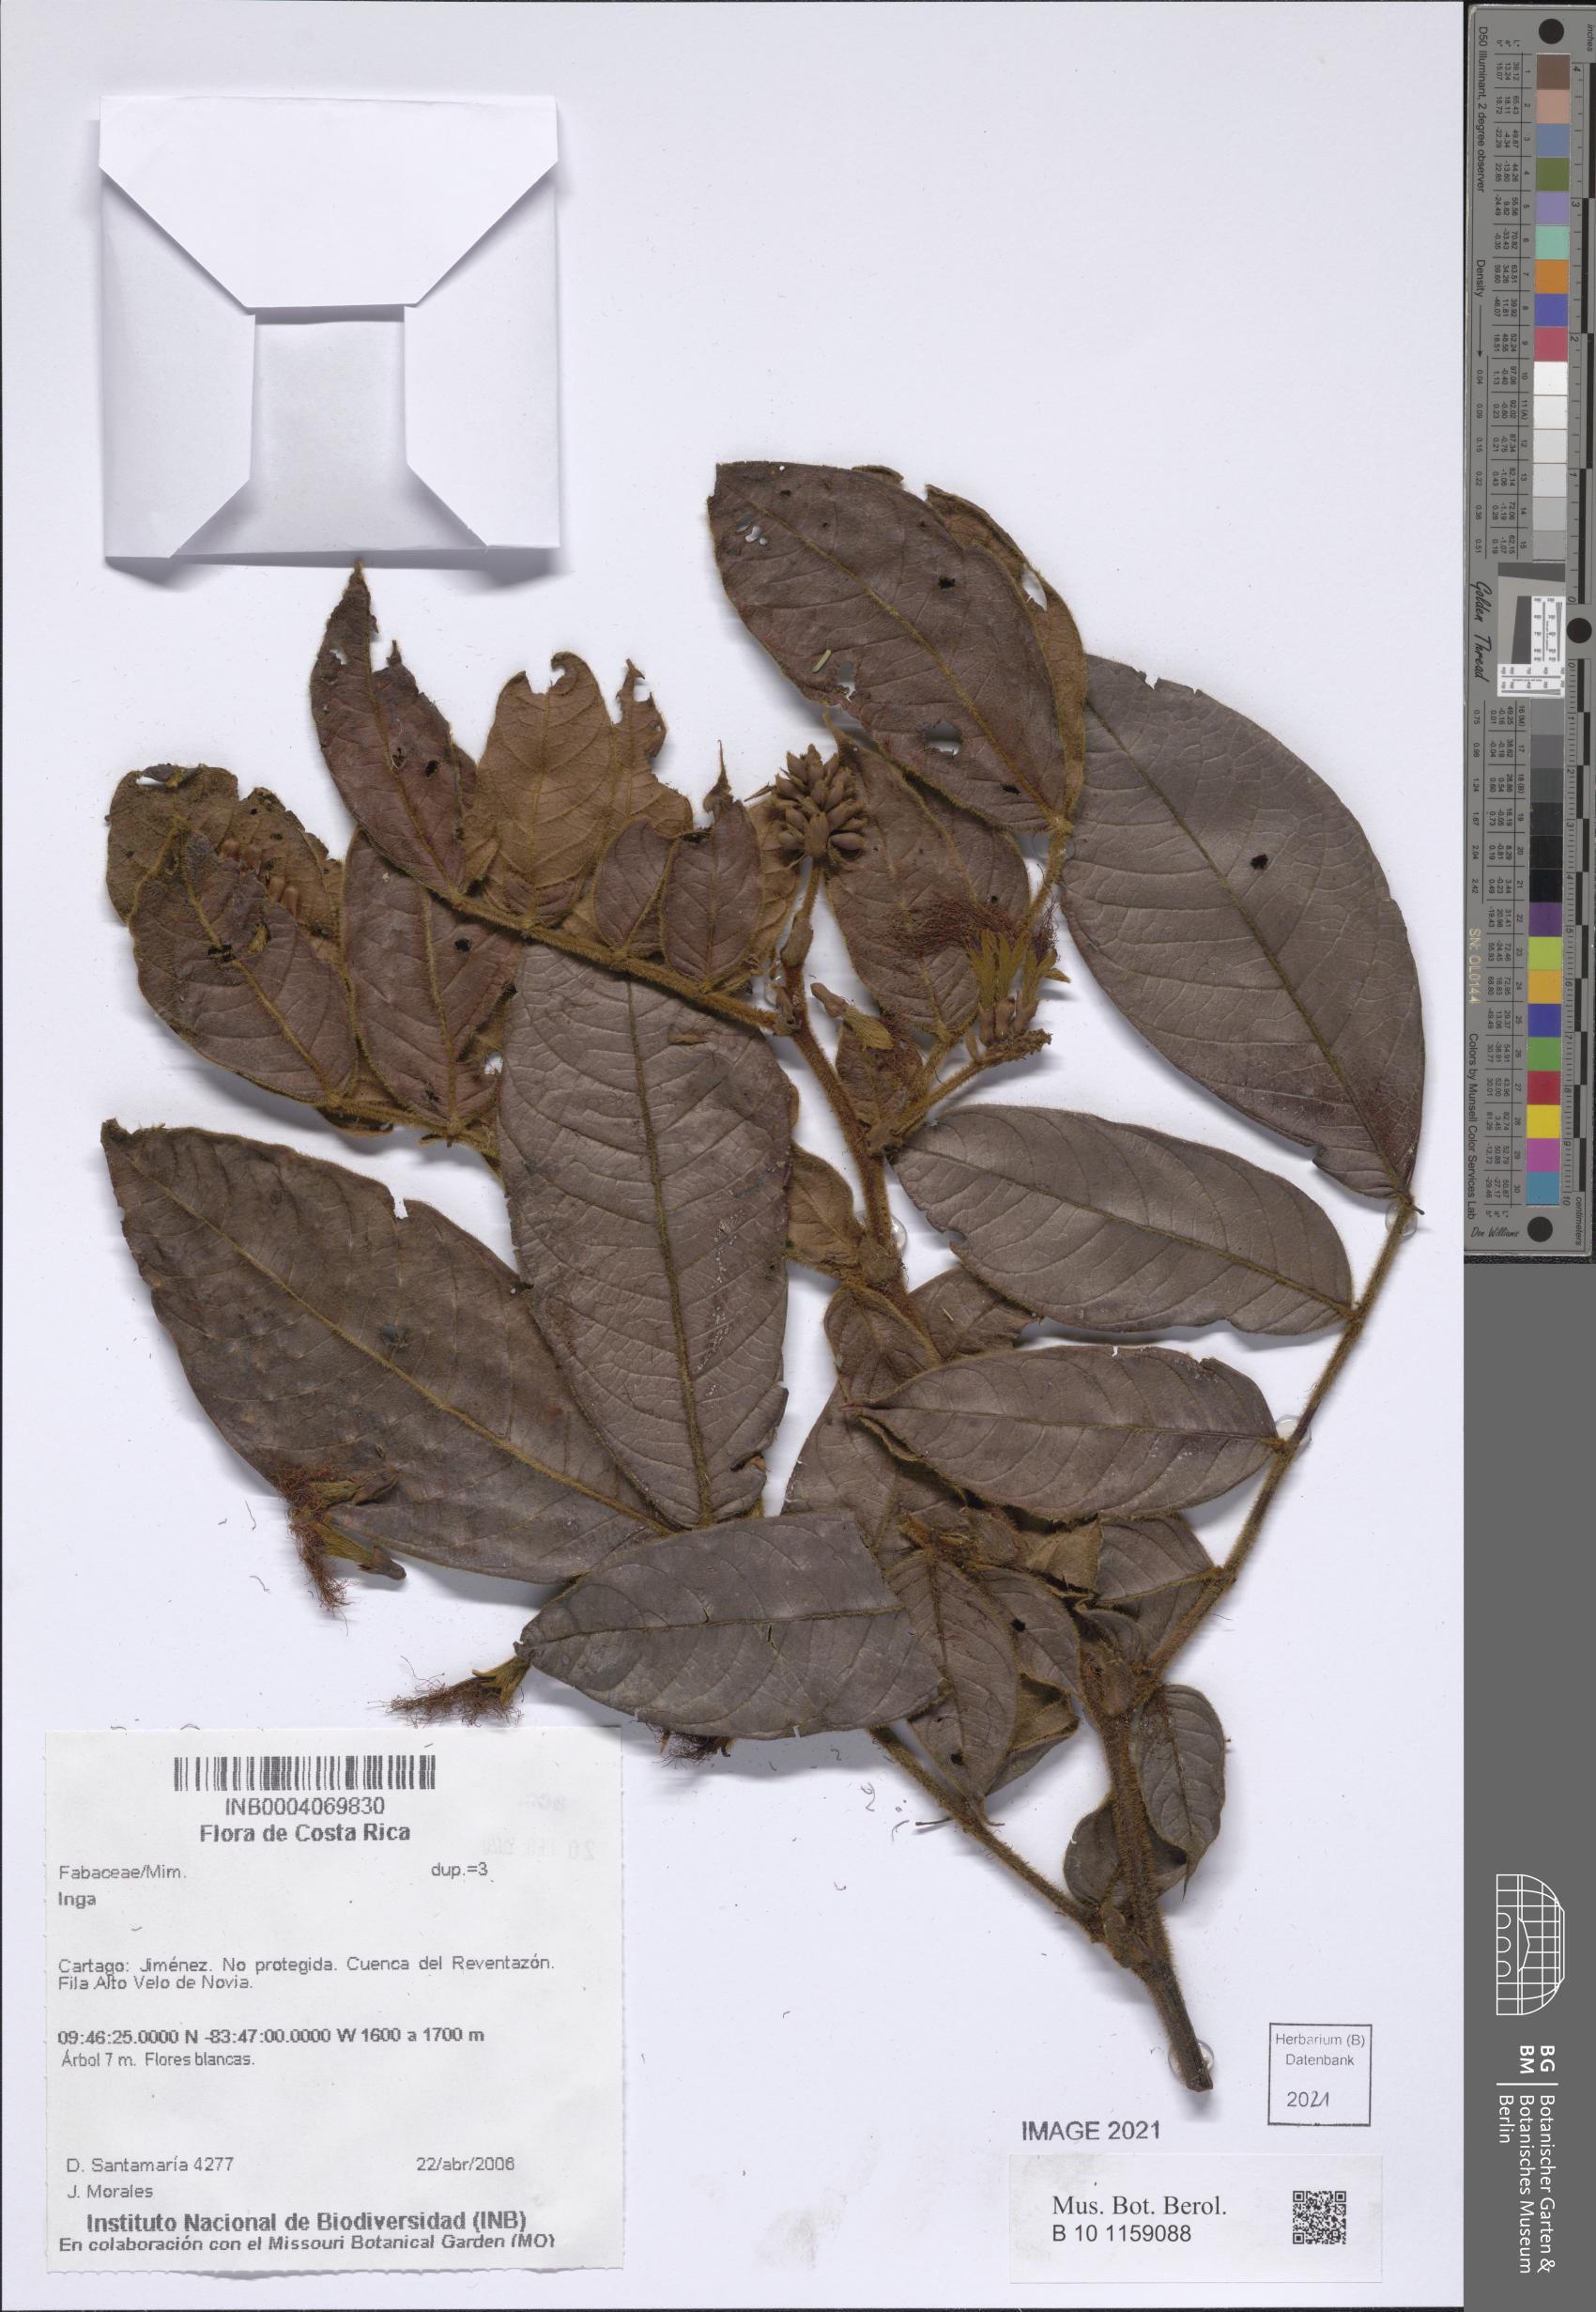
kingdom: Plantae
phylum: Tracheophyta
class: Magnoliopsida
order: Fabales
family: Fabaceae
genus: Inga
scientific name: Inga
